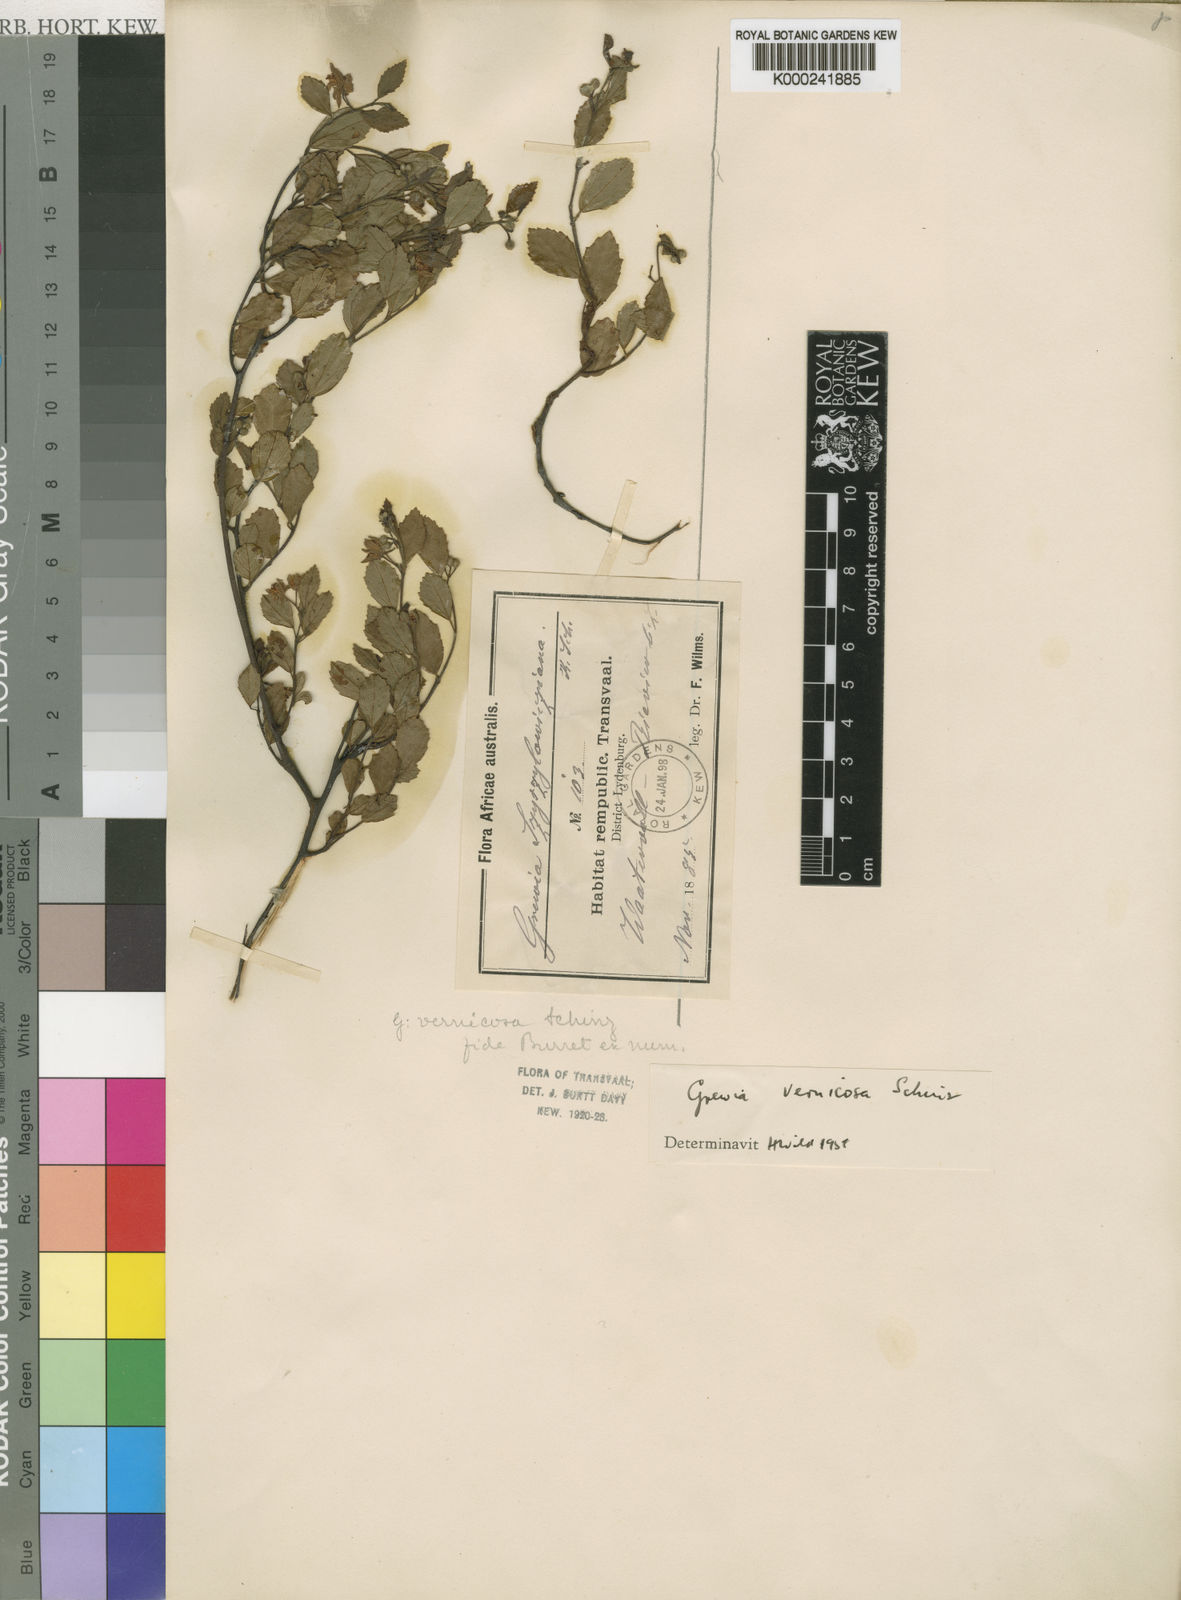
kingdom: Plantae
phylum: Tracheophyta
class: Magnoliopsida
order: Malvales
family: Malvaceae
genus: Grewia
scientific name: Grewia vernicosa
